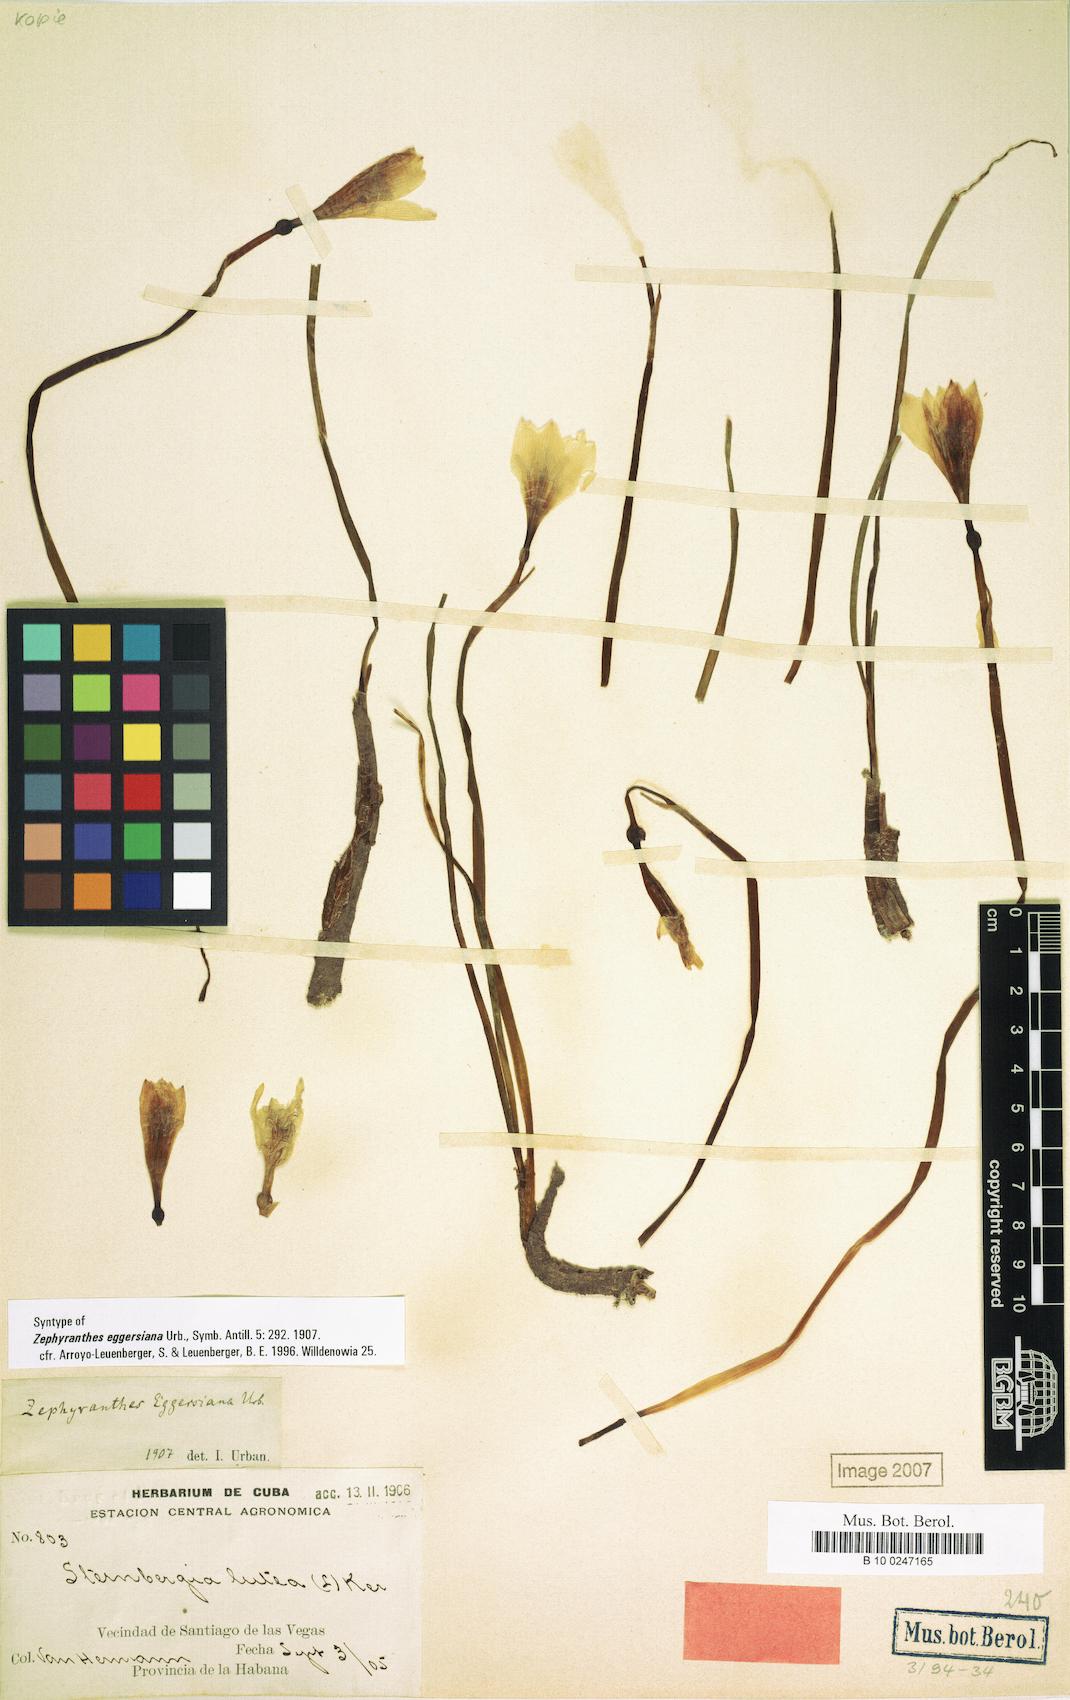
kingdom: Plantae
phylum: Tracheophyta
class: Liliopsida
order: Asparagales
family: Amaryllidaceae
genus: Zephyranthes
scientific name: Zephyranthes citrina
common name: Citron zephyrlily
